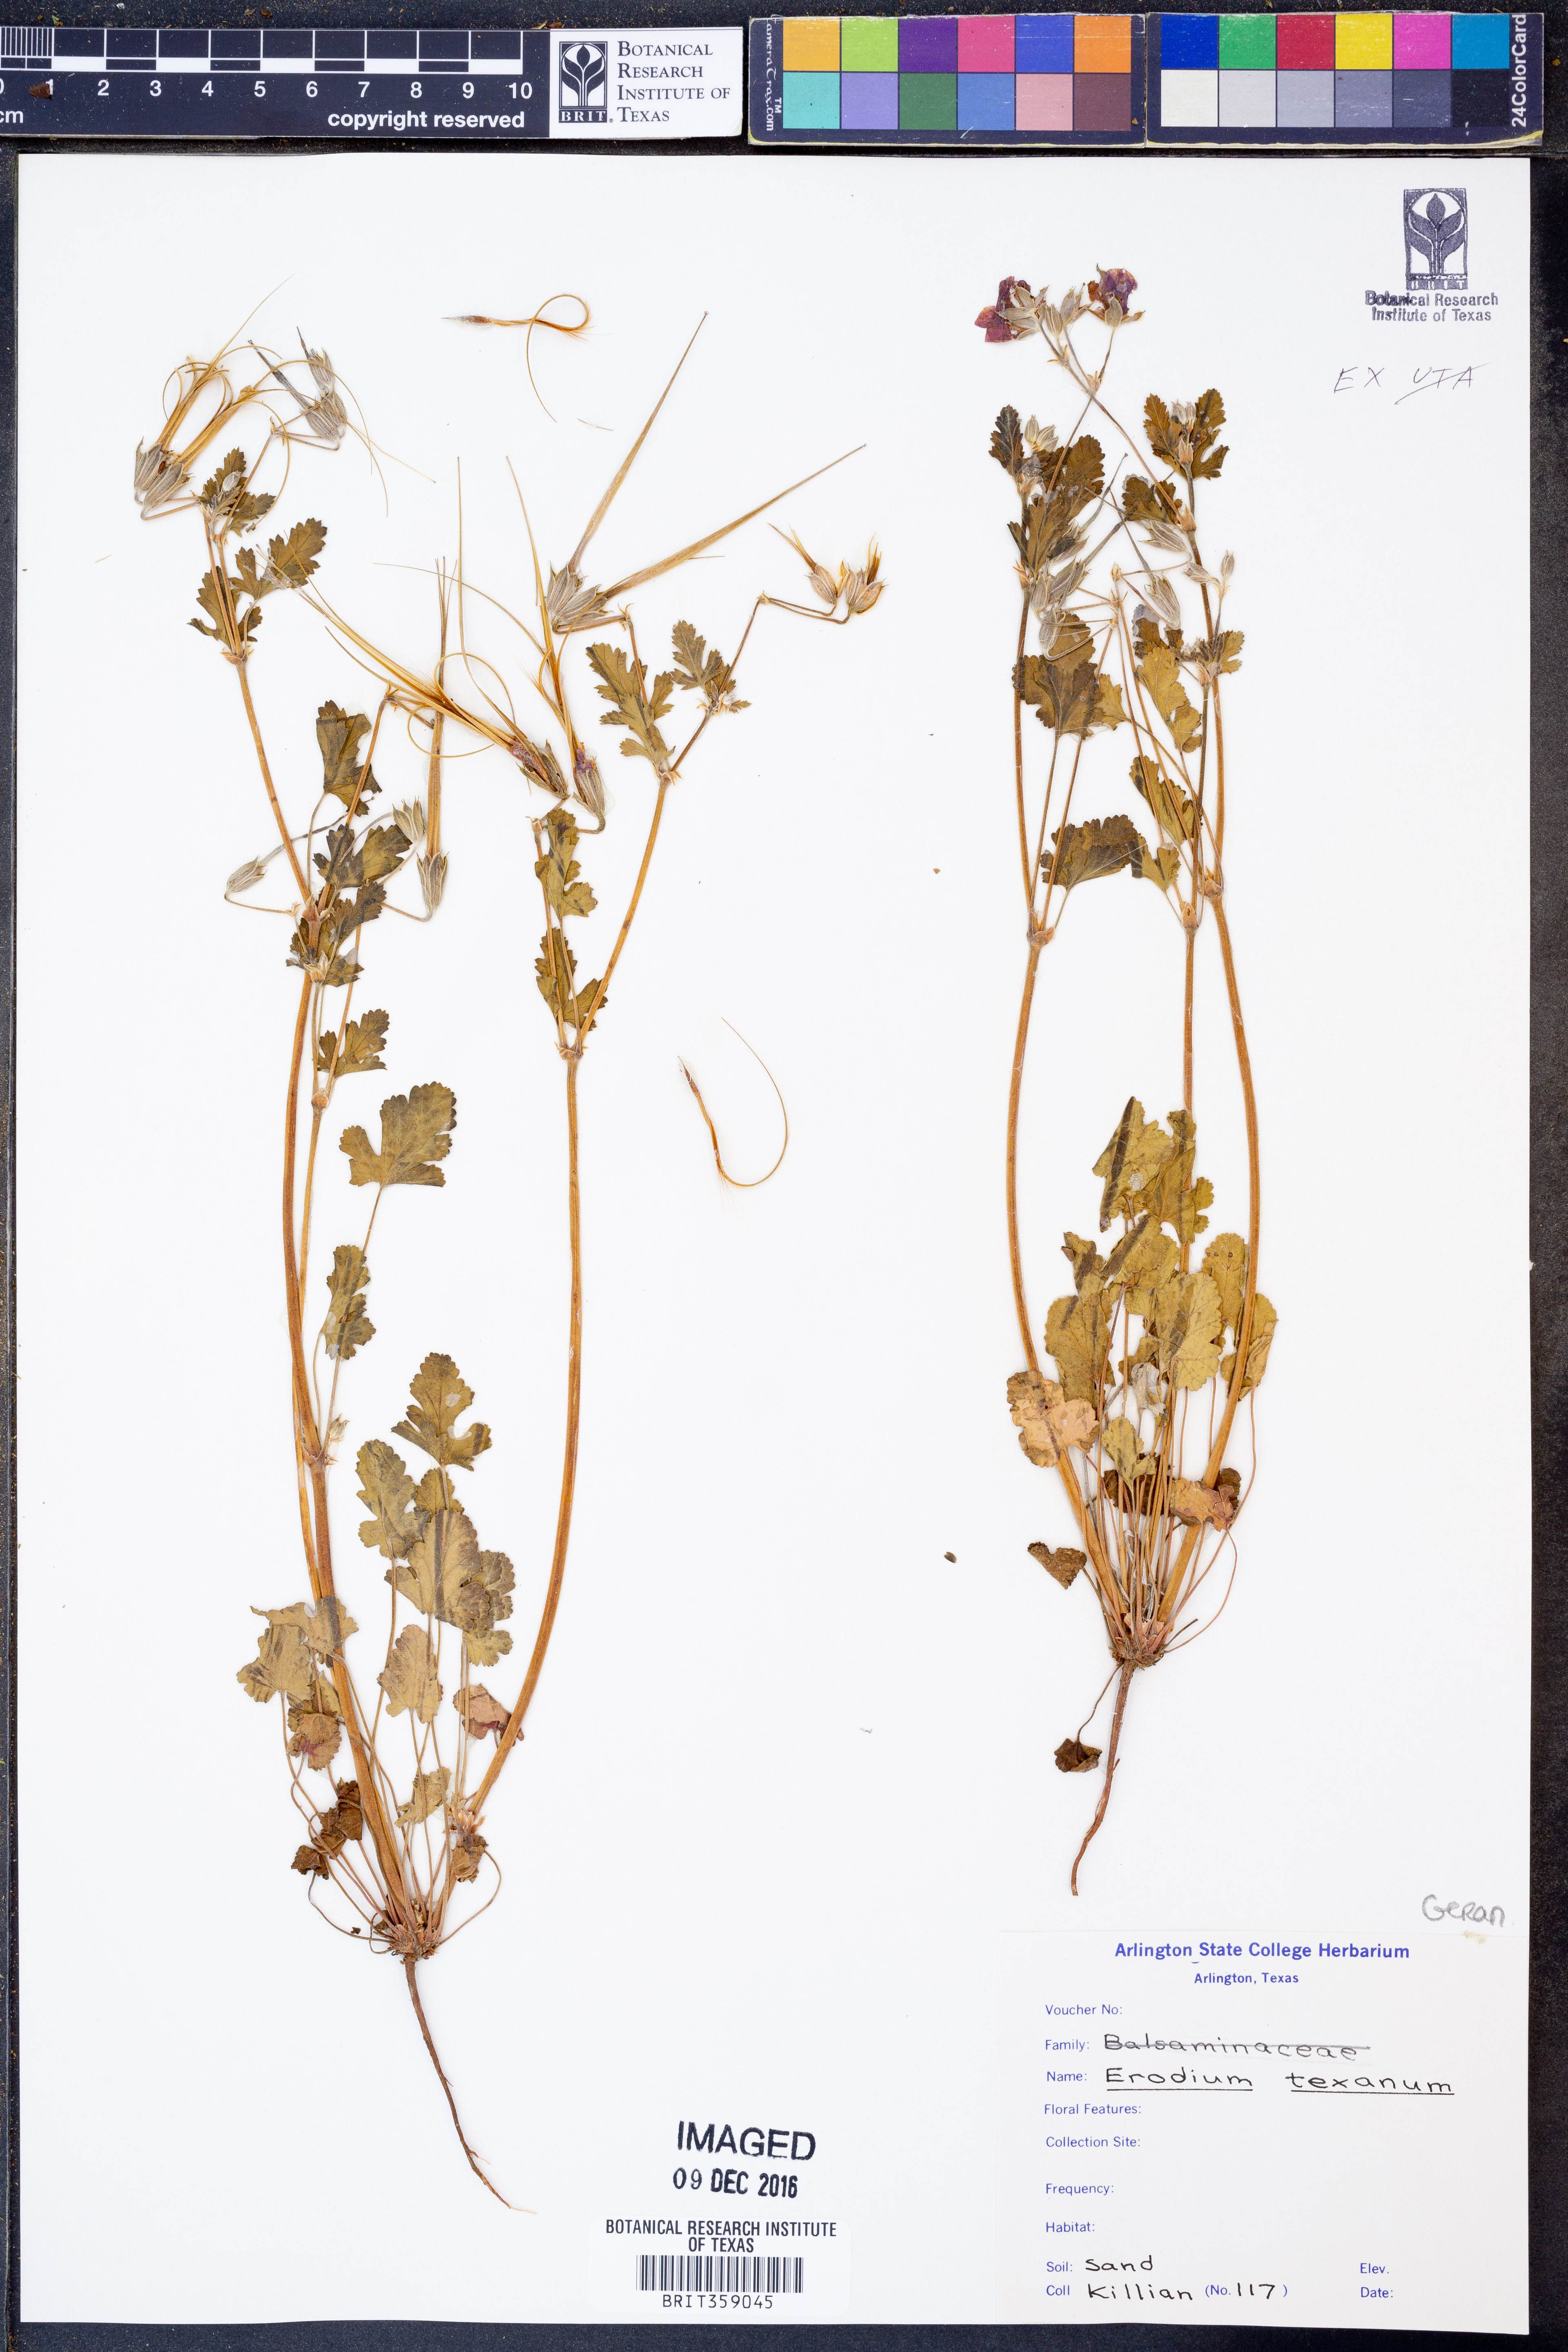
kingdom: Plantae
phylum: Tracheophyta
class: Magnoliopsida
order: Geraniales
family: Geraniaceae
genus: Erodium
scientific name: Erodium texanum
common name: Texas stork's-bill
